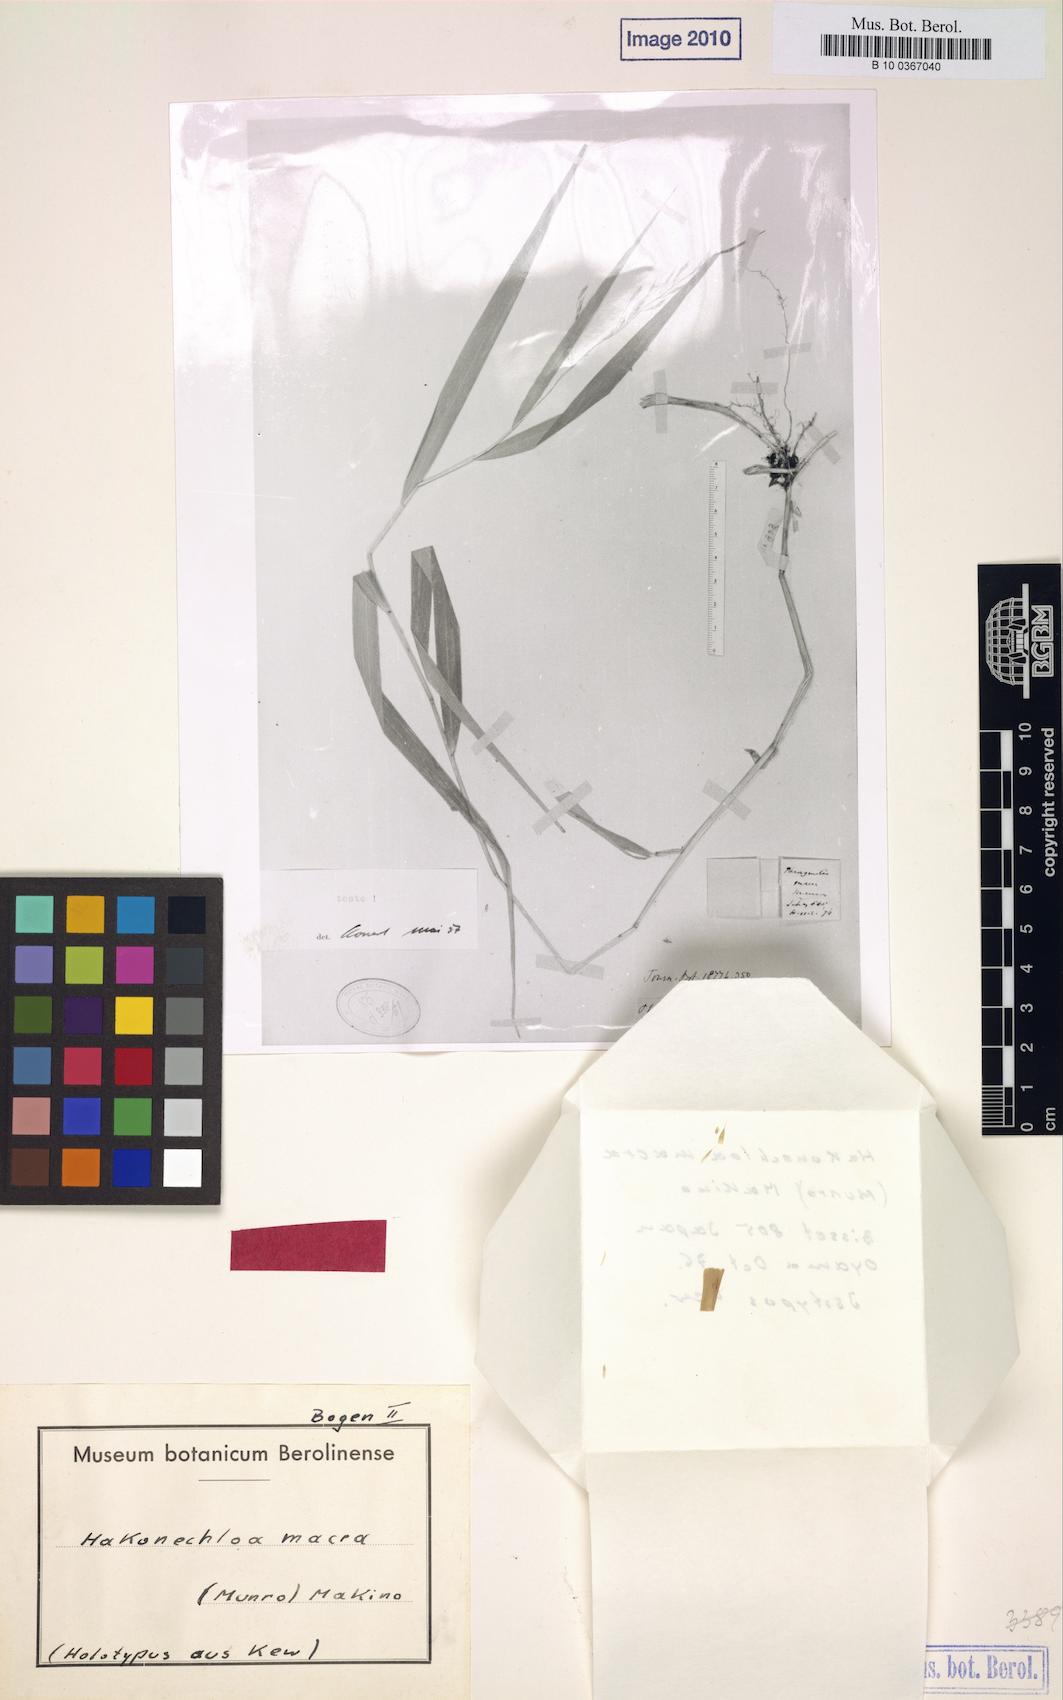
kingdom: Plantae
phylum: Tracheophyta
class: Liliopsida
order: Poales
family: Poaceae
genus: Hakonechloa
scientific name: Hakonechloa macra
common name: Hakone grass
